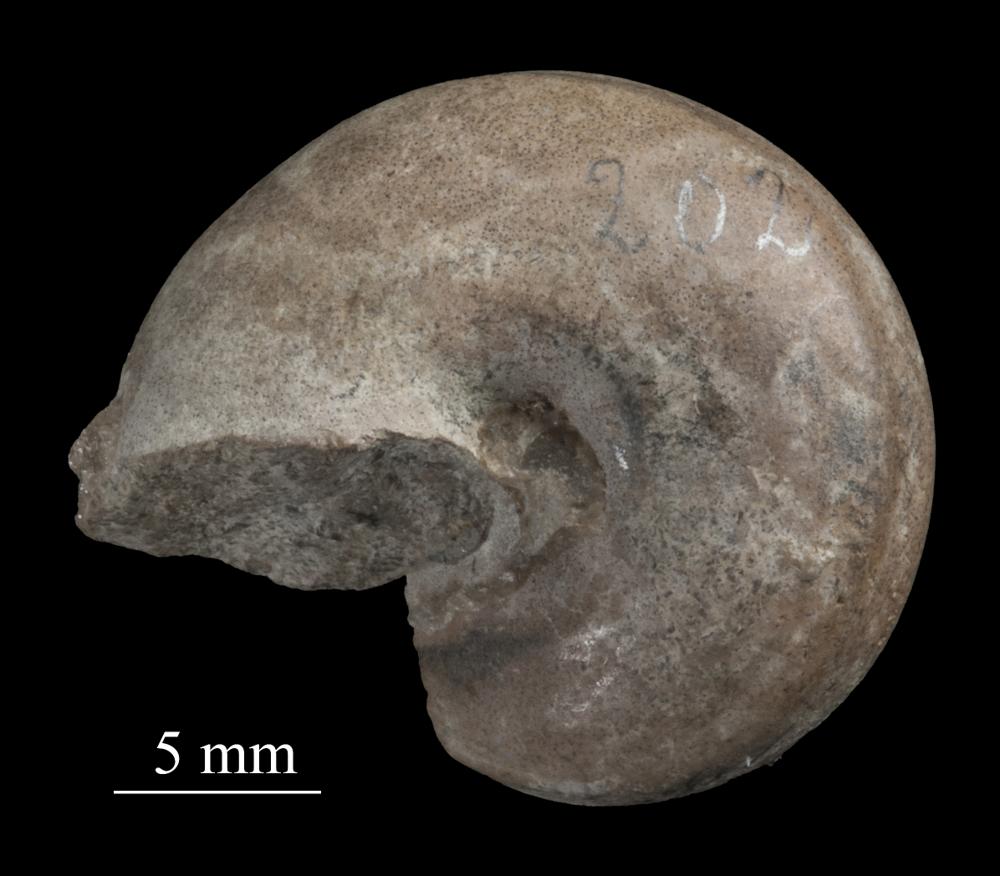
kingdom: Animalia
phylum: Mollusca
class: Gastropoda
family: Lophospiridae
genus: Proturritella
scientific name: Proturritella Turbinites bicarinatus
